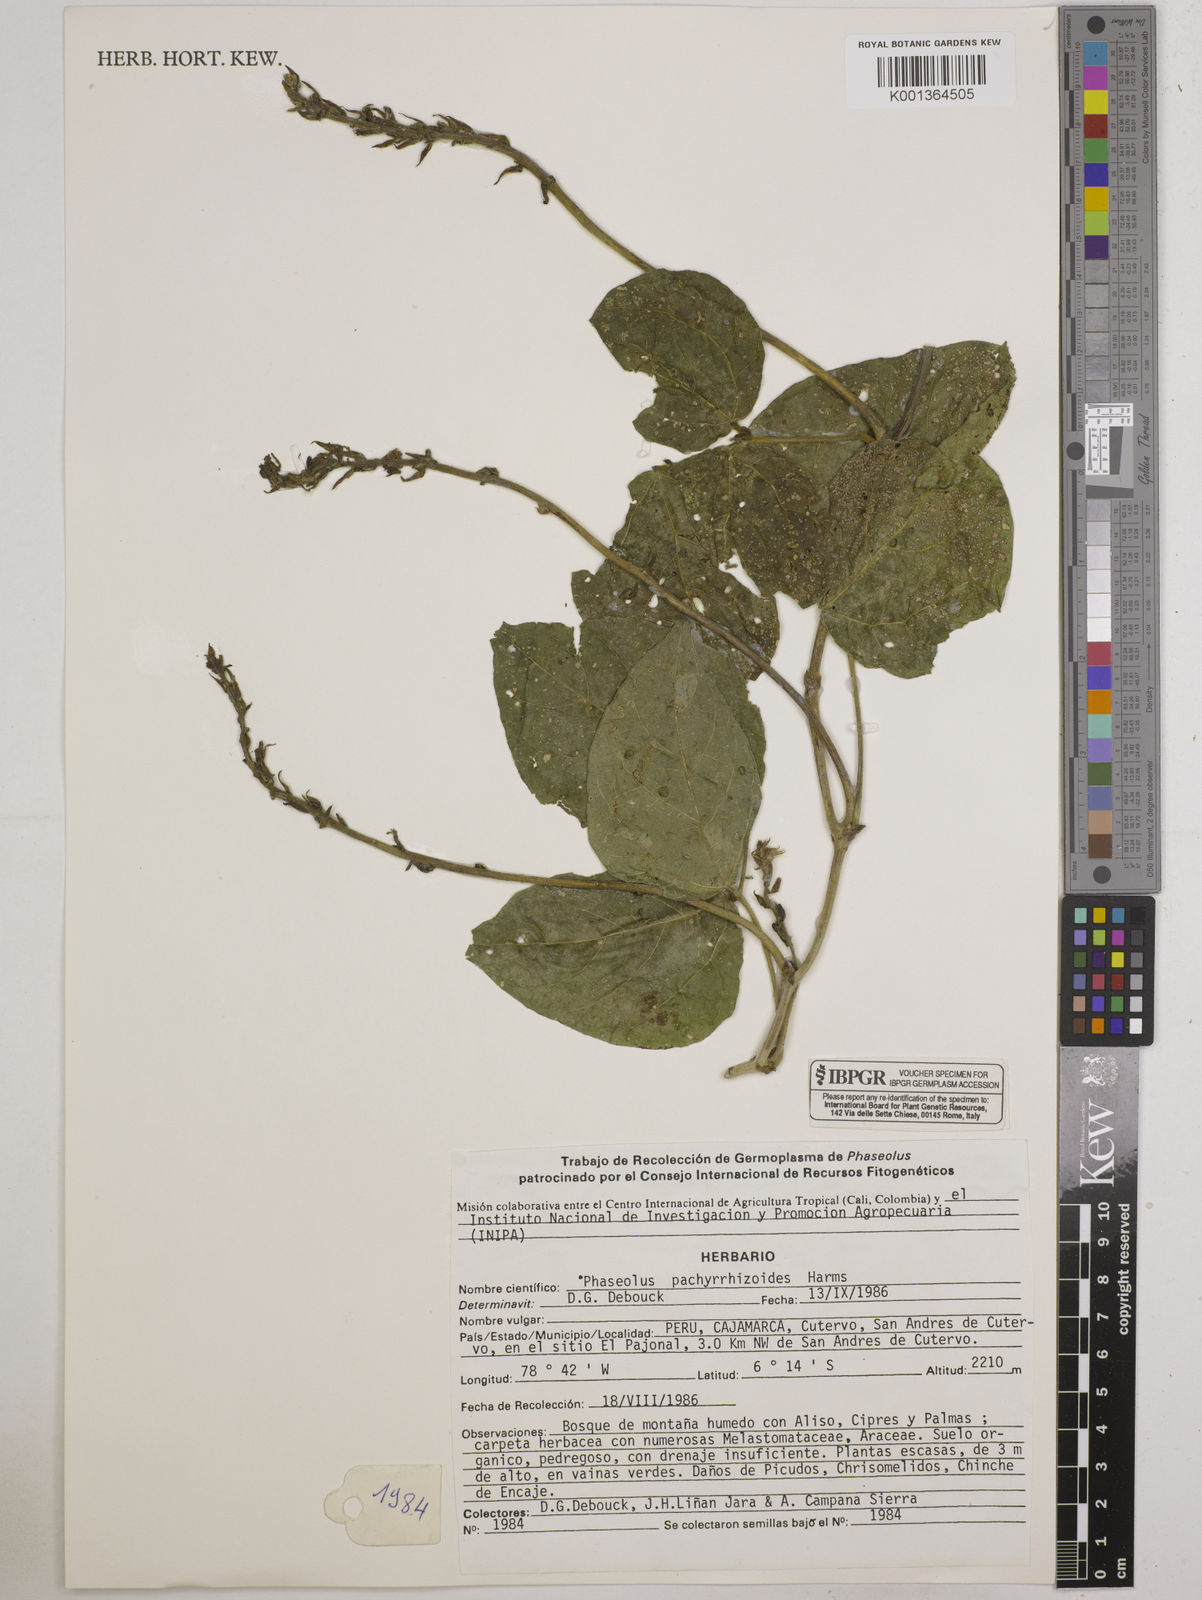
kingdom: Plantae
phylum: Tracheophyta
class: Magnoliopsida
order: Fabales
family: Fabaceae
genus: Ramirezella
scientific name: Ramirezella strobilophora
